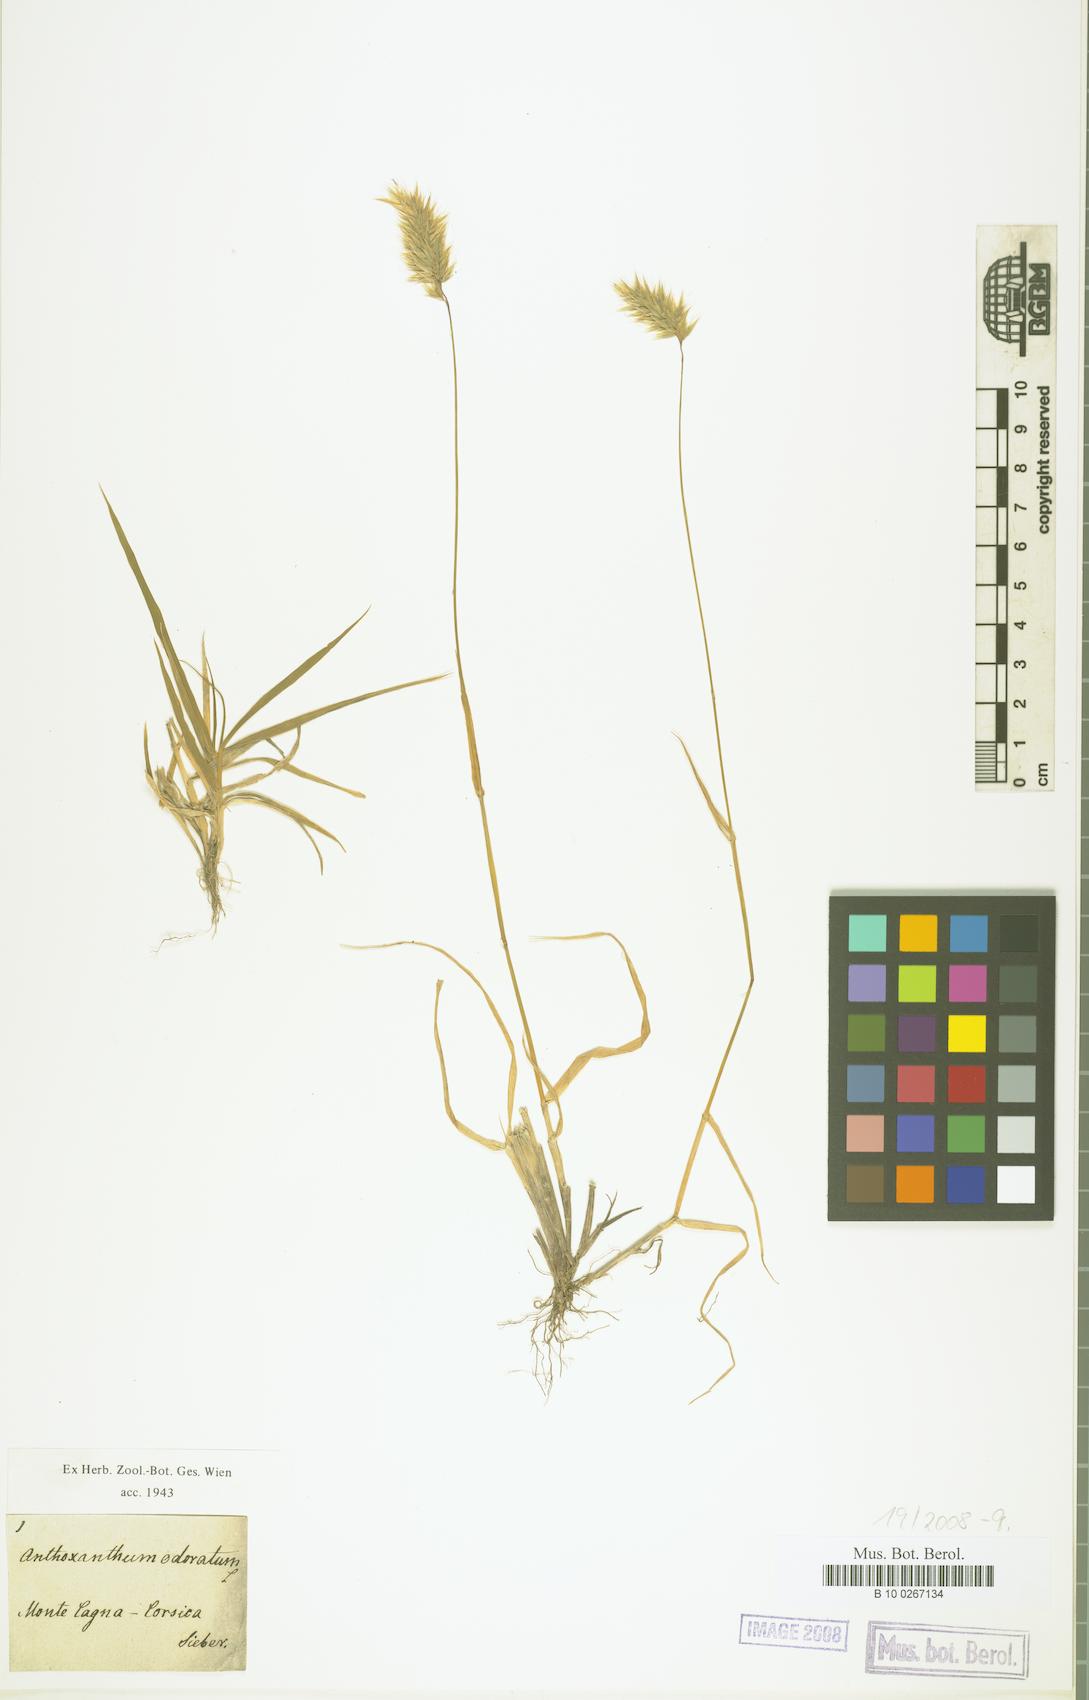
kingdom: Plantae
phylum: Tracheophyta
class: Liliopsida
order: Poales
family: Poaceae
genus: Anthoxanthum
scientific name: Anthoxanthum odoratum
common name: Sweet vernalgrass
